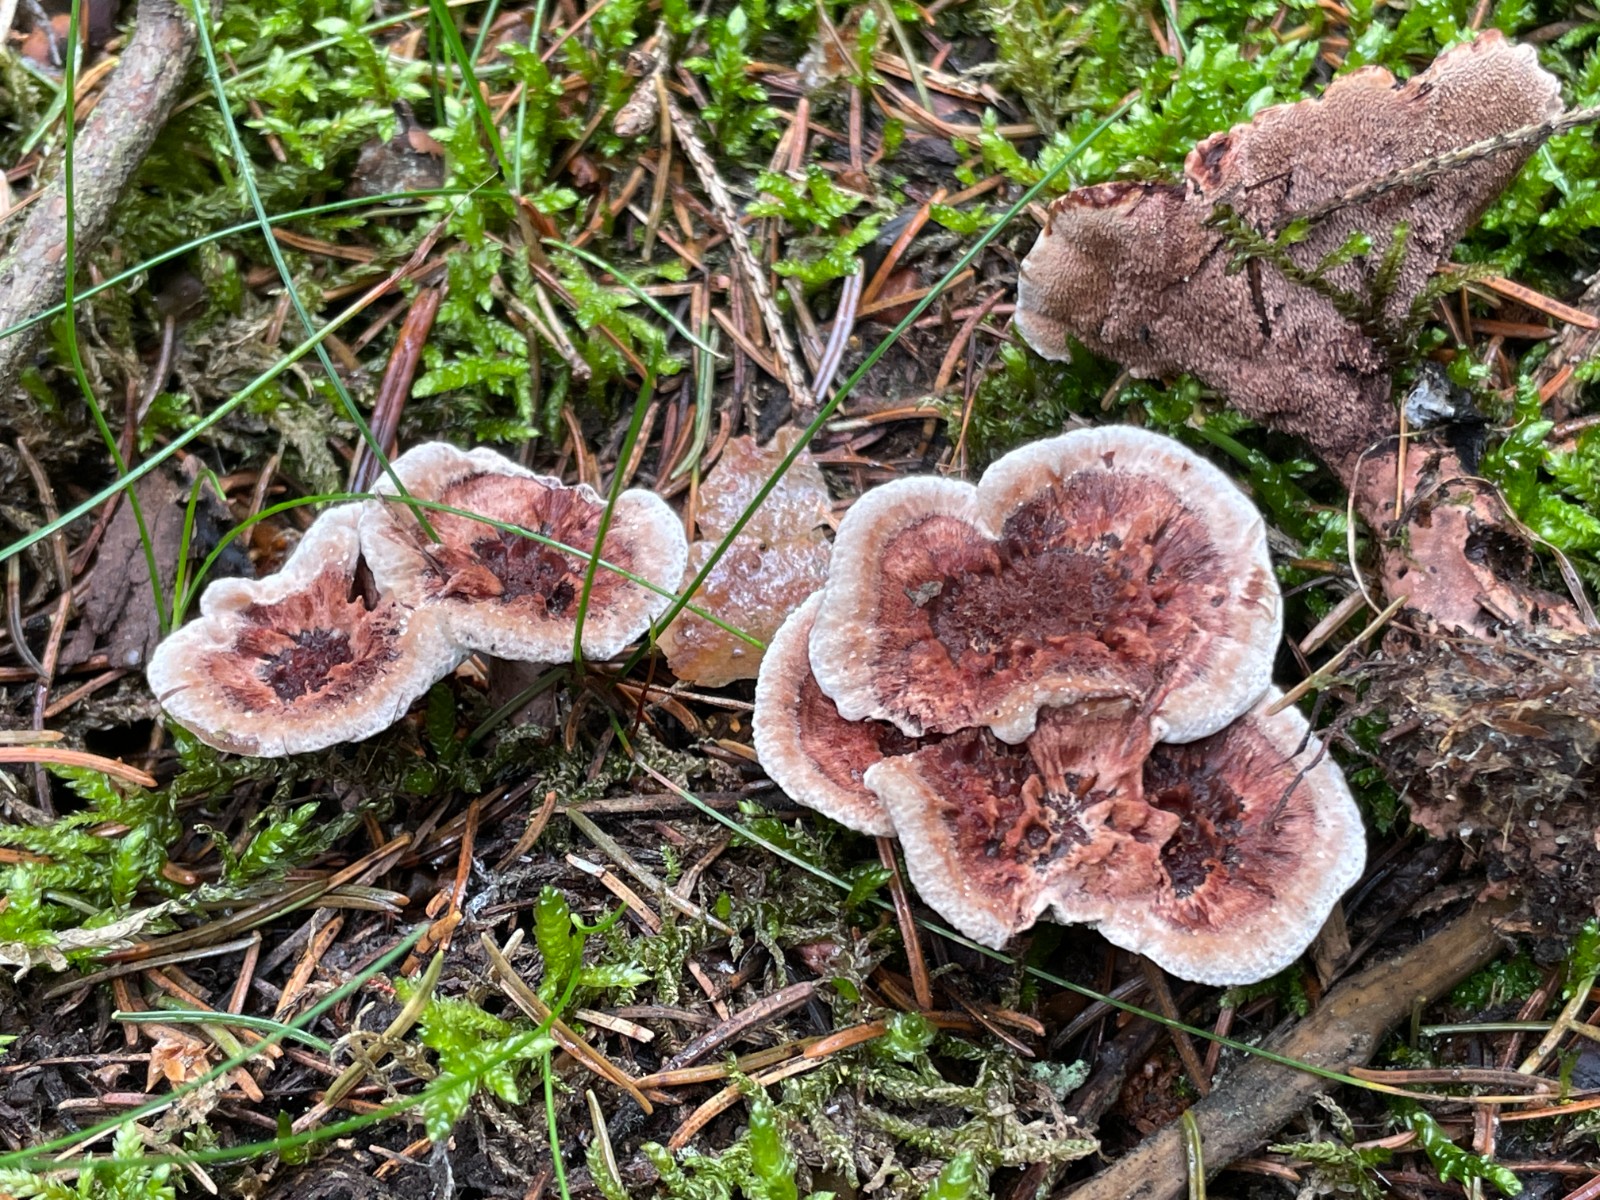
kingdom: Fungi
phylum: Basidiomycota
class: Agaricomycetes
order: Thelephorales
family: Bankeraceae
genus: Hydnellum
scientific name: Hydnellum concrescens
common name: Zoned tooth
